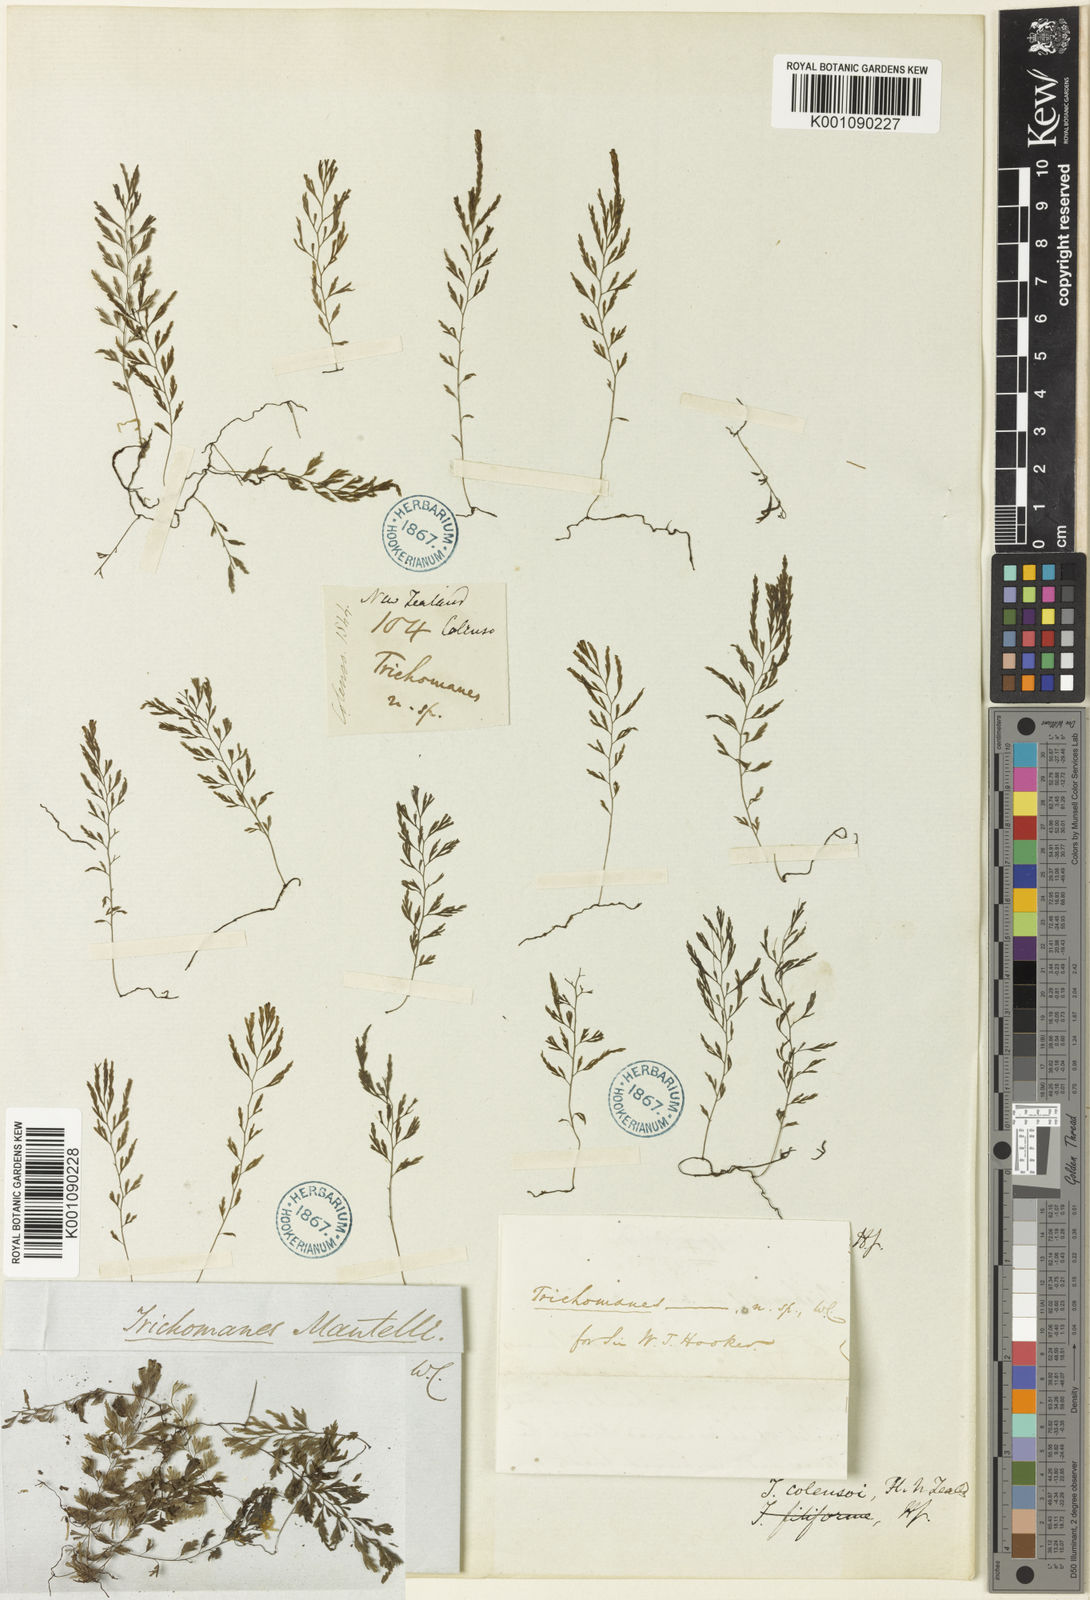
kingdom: Plantae
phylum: Tracheophyta
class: Polypodiopsida
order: Hymenophyllales
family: Hymenophyllaceae
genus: Polyphlebium
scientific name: Polyphlebium colensoi
